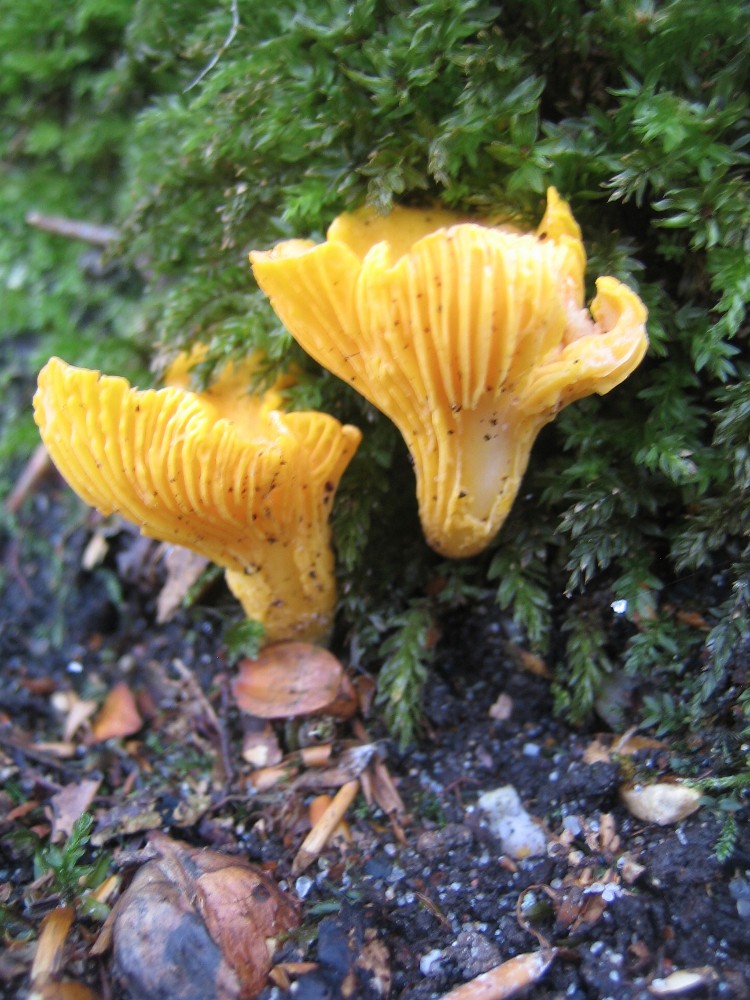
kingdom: Fungi
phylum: Basidiomycota
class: Agaricomycetes
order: Cantharellales
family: Hydnaceae
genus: Cantharellus
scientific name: Cantharellus cibarius
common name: almindelig kantarel
